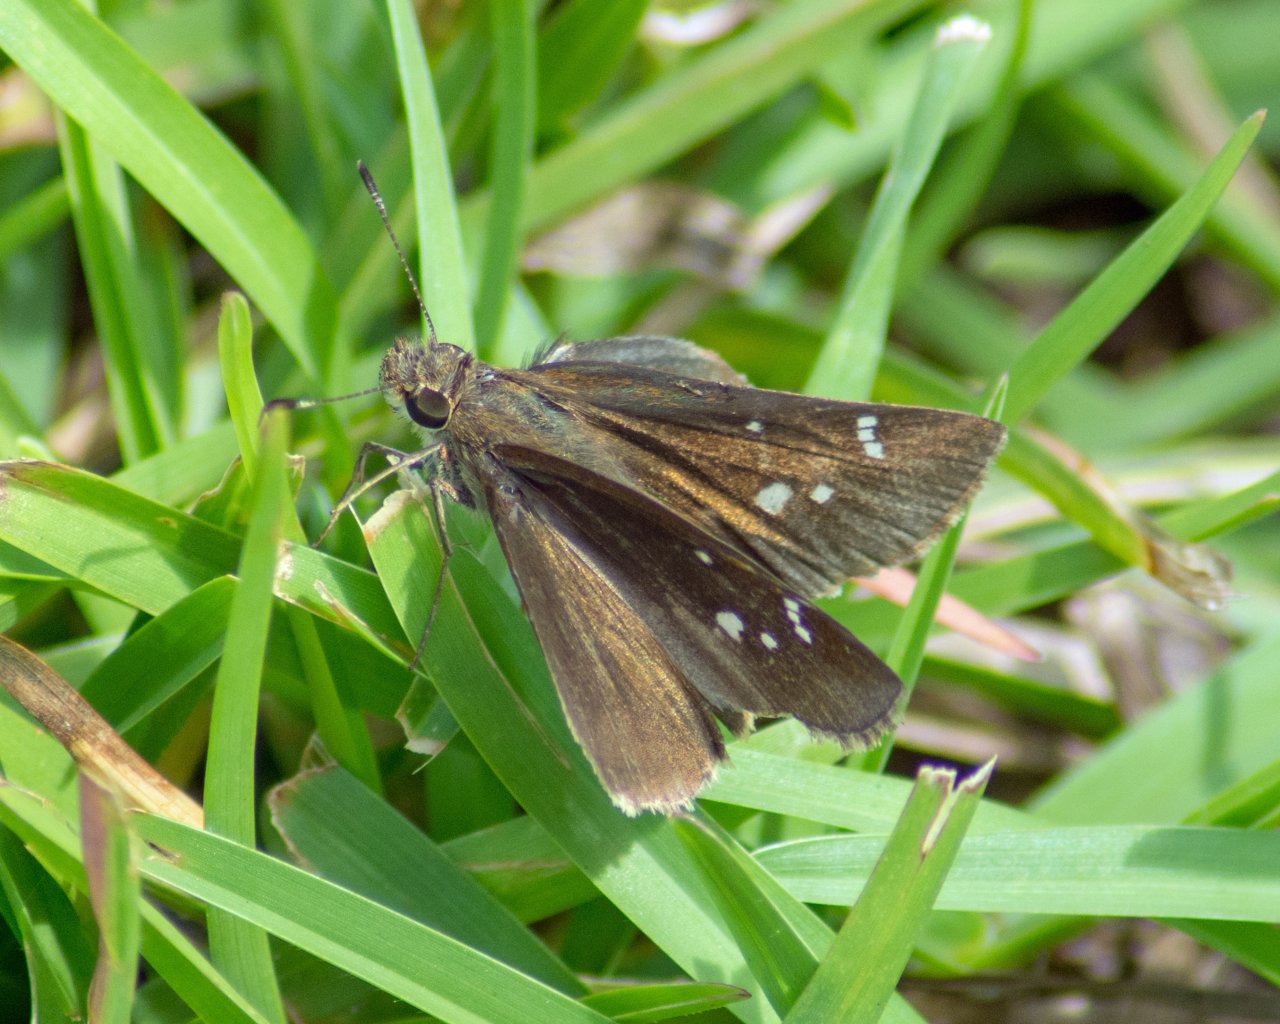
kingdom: Animalia
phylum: Arthropoda
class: Insecta
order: Lepidoptera
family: Hesperiidae
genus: Lerema
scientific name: Lerema accius
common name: Clouded Skipper
